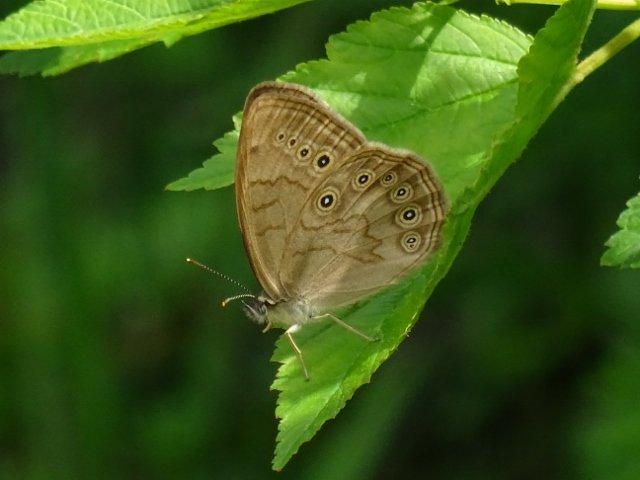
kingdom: Animalia
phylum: Arthropoda
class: Insecta
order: Lepidoptera
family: Nymphalidae
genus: Lethe
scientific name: Lethe eurydice
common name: Eyed Brown
